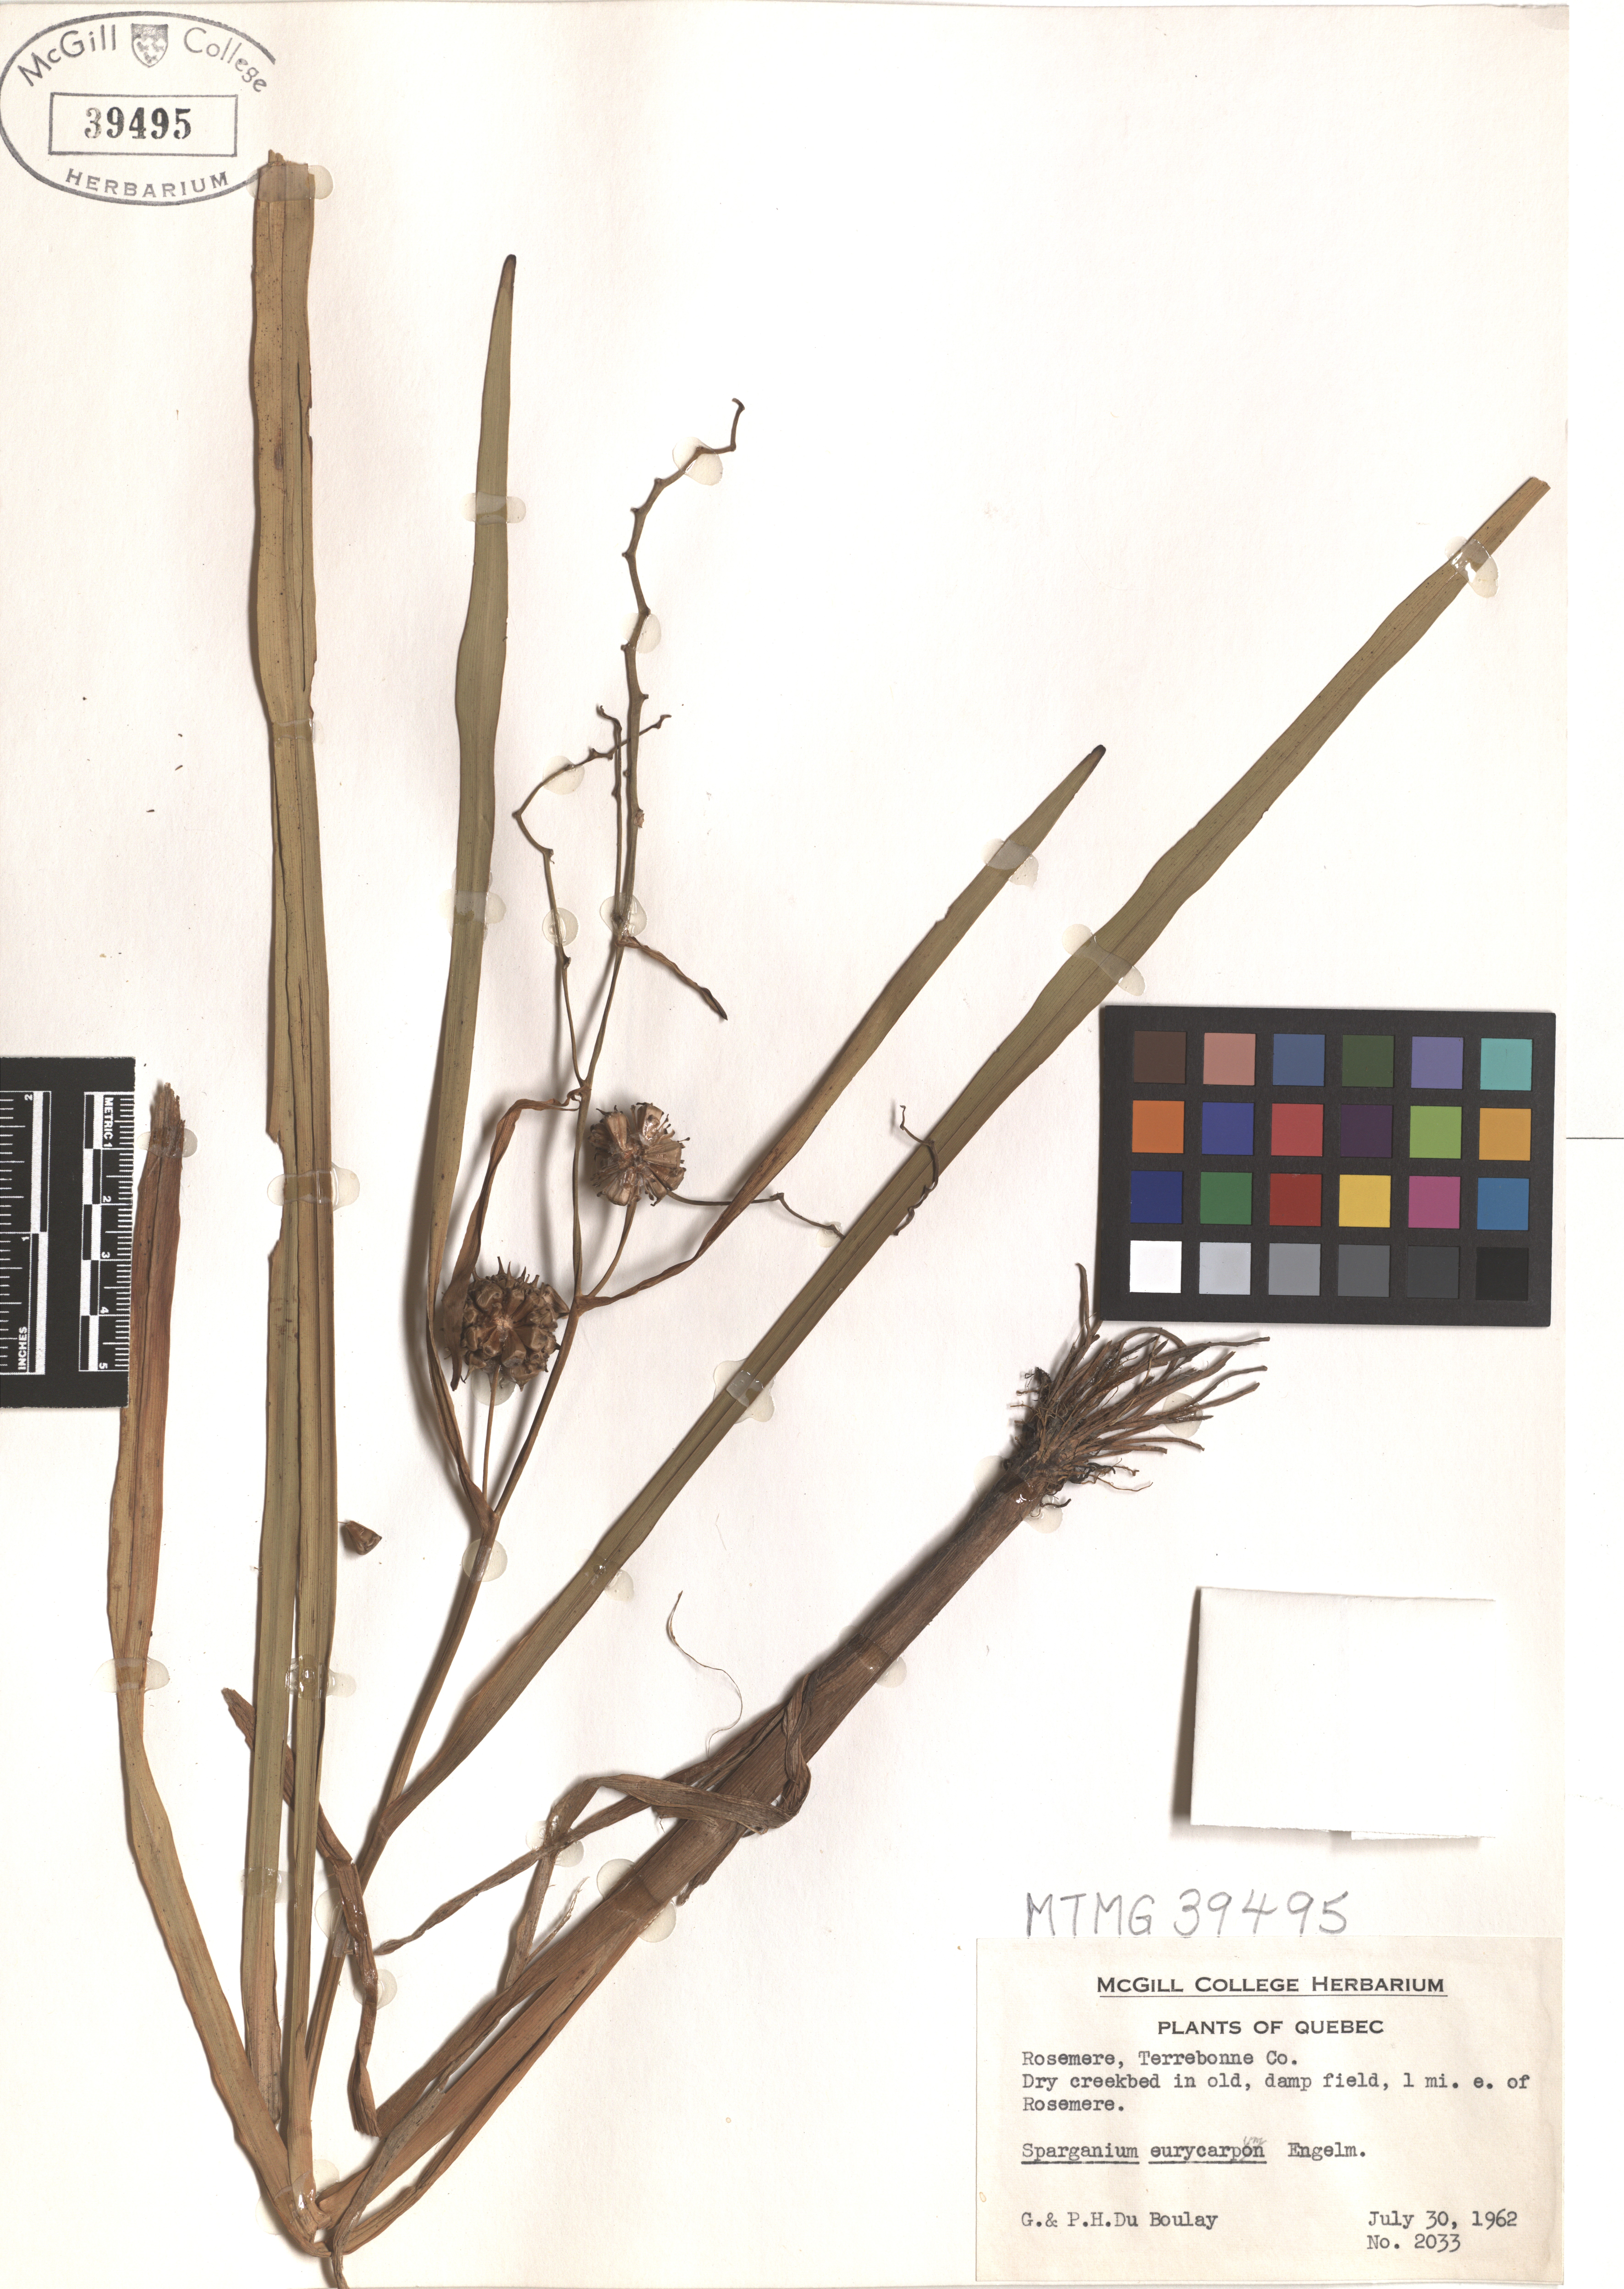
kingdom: Plantae
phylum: Tracheophyta
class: Liliopsida
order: Poales
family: Typhaceae
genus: Sparganium
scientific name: Sparganium eurycarpum
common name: Broad-fruited burreed
